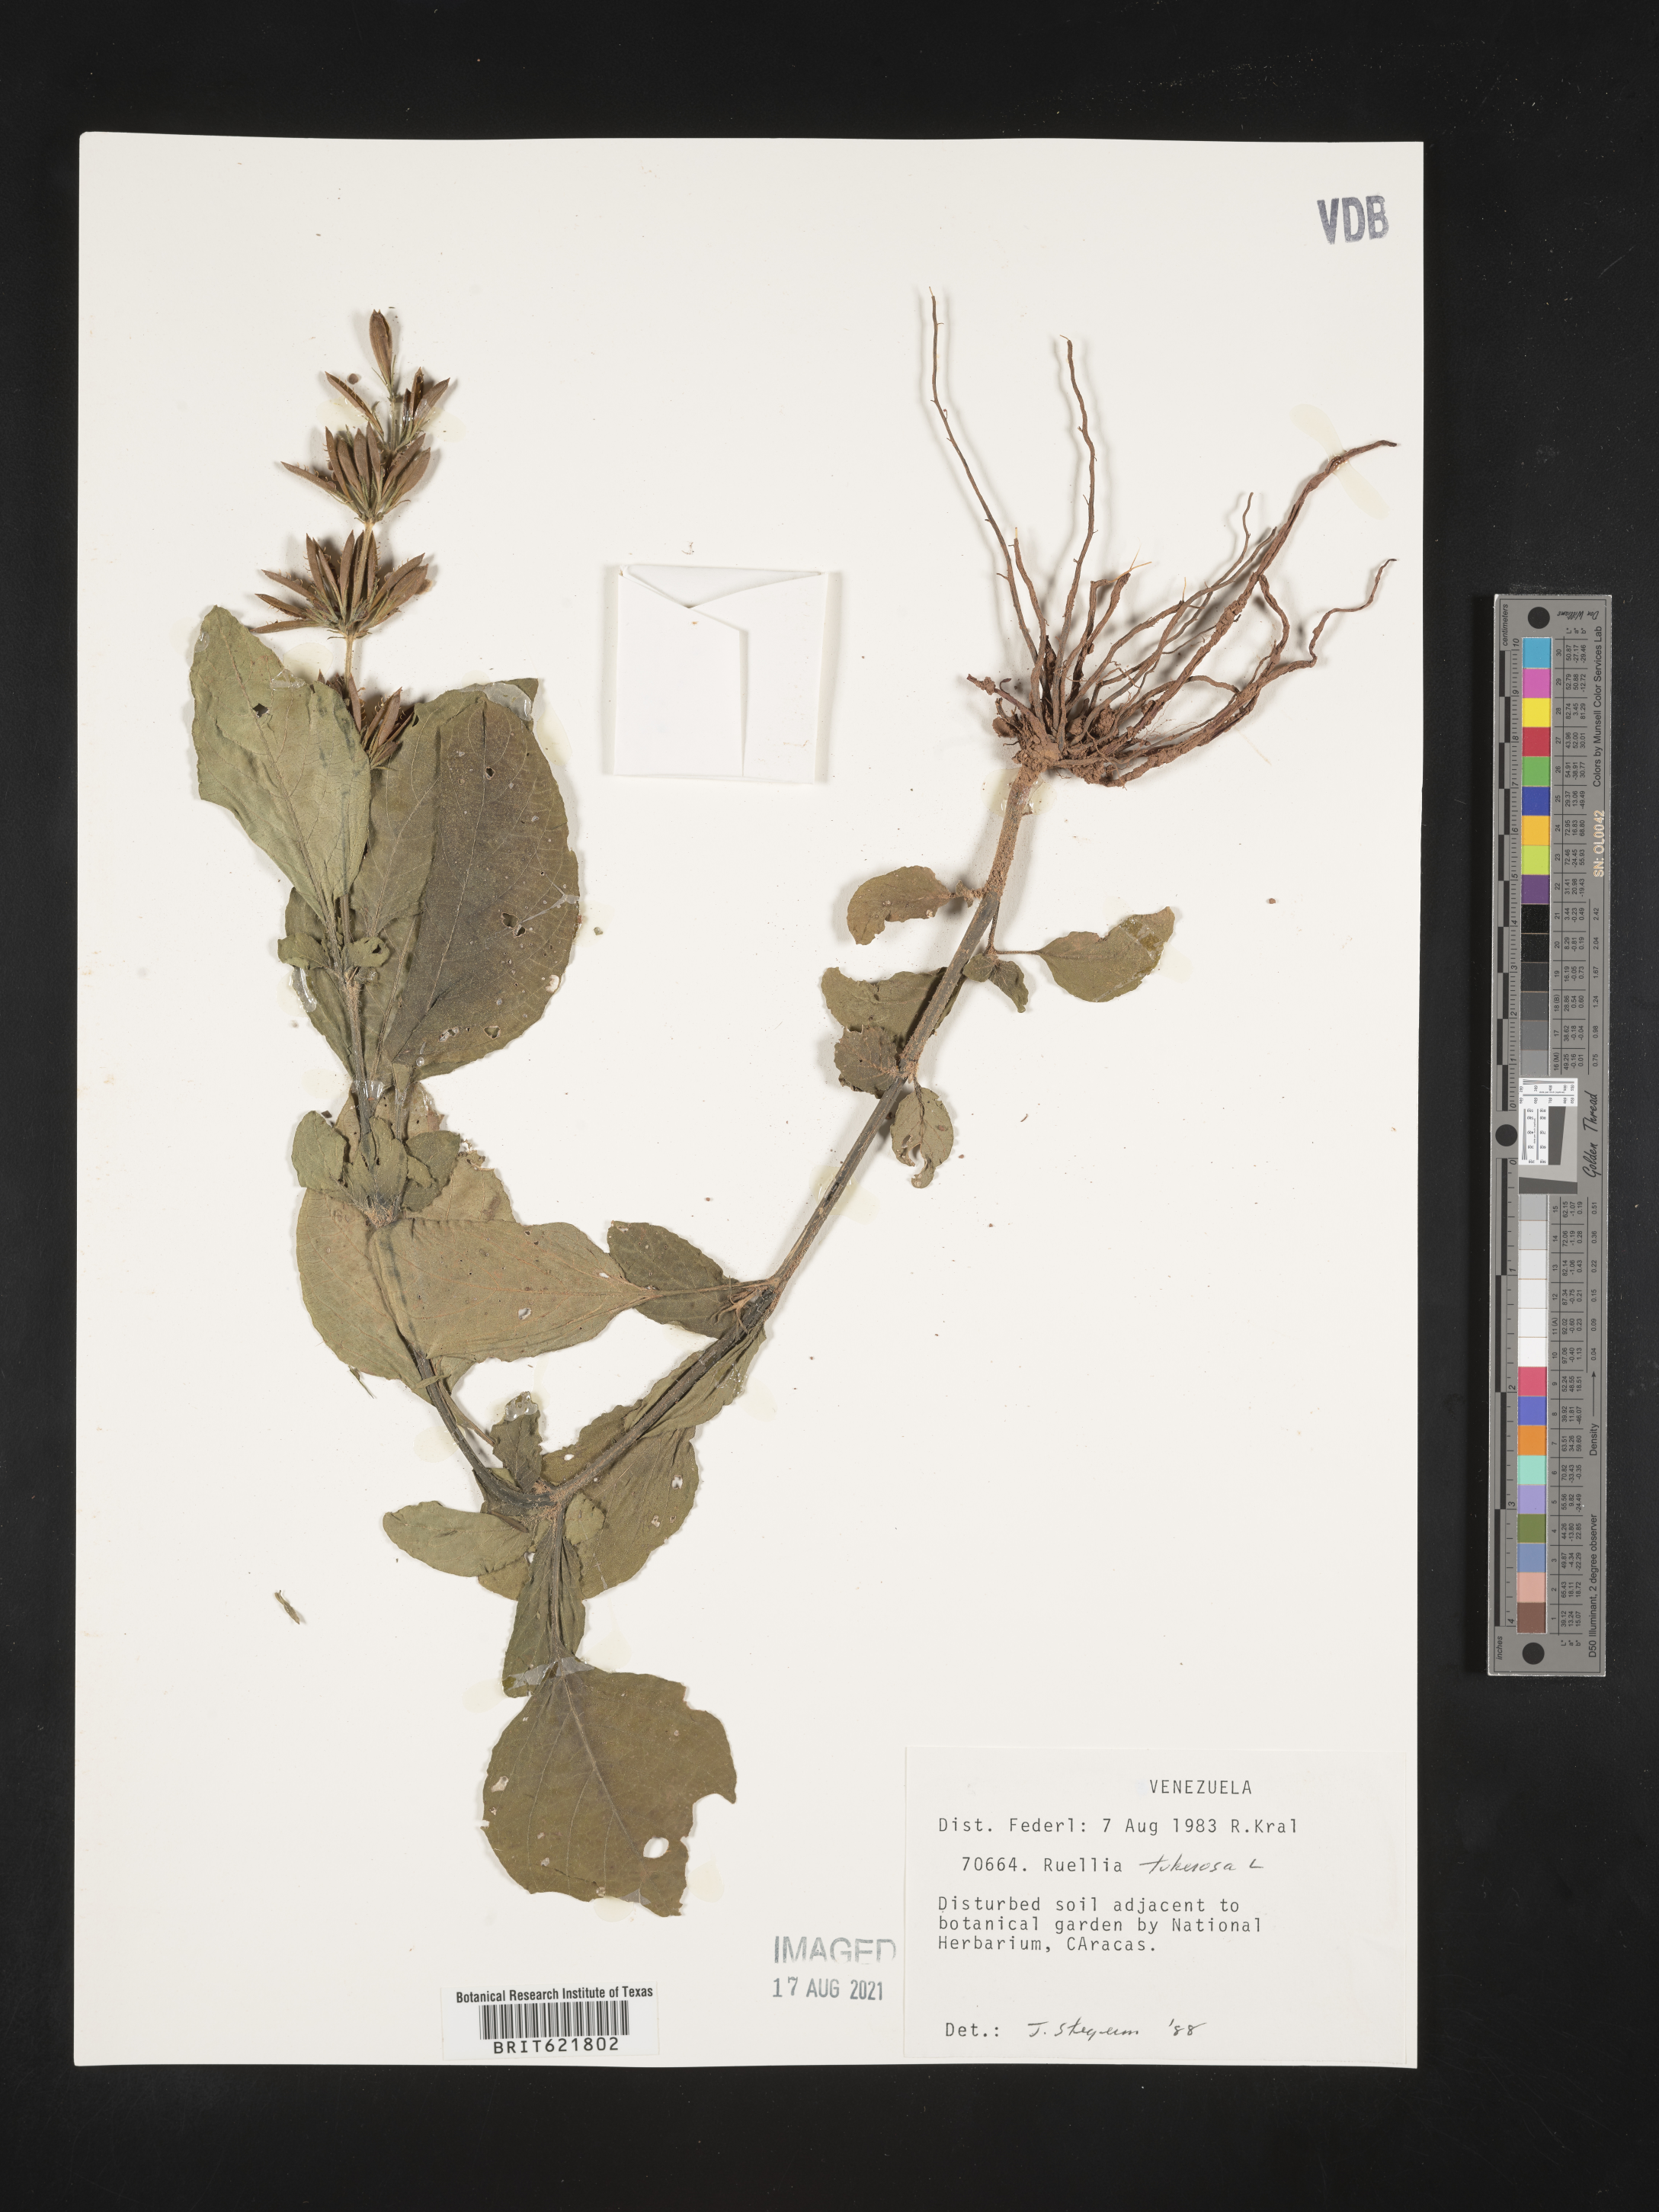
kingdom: Plantae
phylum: Tracheophyta
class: Magnoliopsida
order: Lamiales
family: Acanthaceae
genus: Ruellia
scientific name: Ruellia tuberosa
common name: Devil's bit
